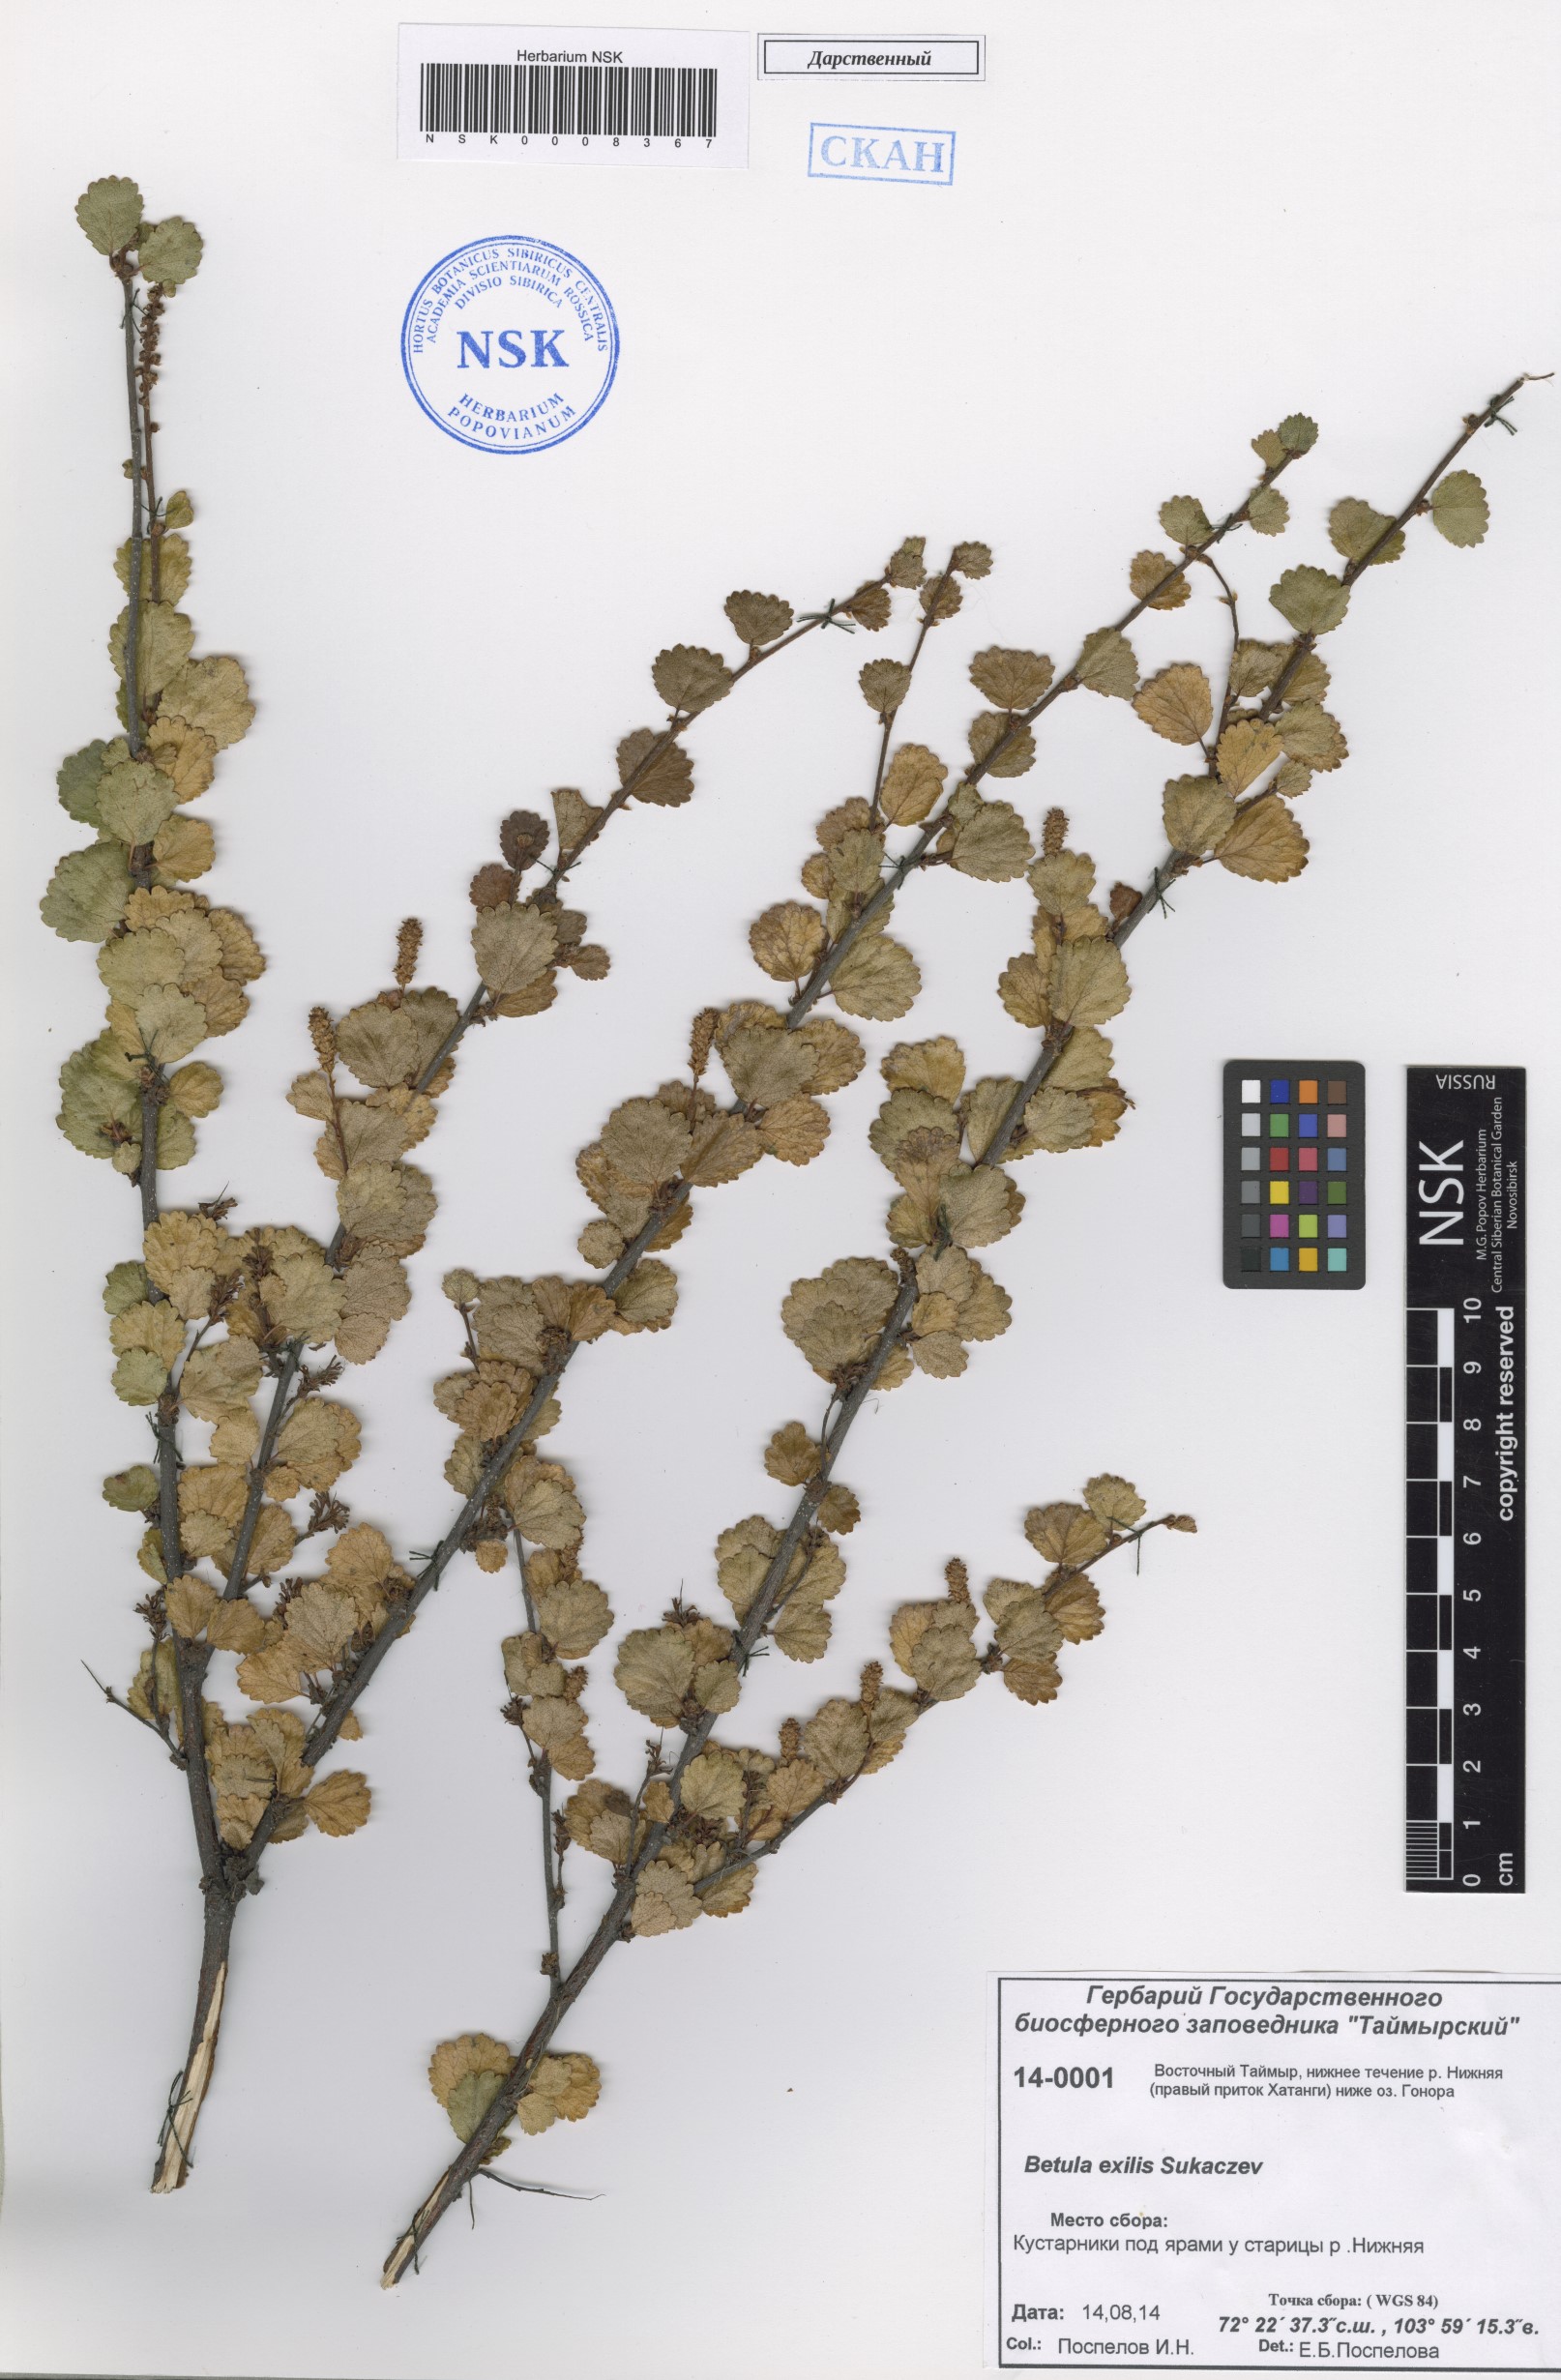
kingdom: Plantae
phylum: Tracheophyta
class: Magnoliopsida
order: Fagales
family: Betulaceae
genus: Betula
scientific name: Betula glandulosa
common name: Dwarf birch
